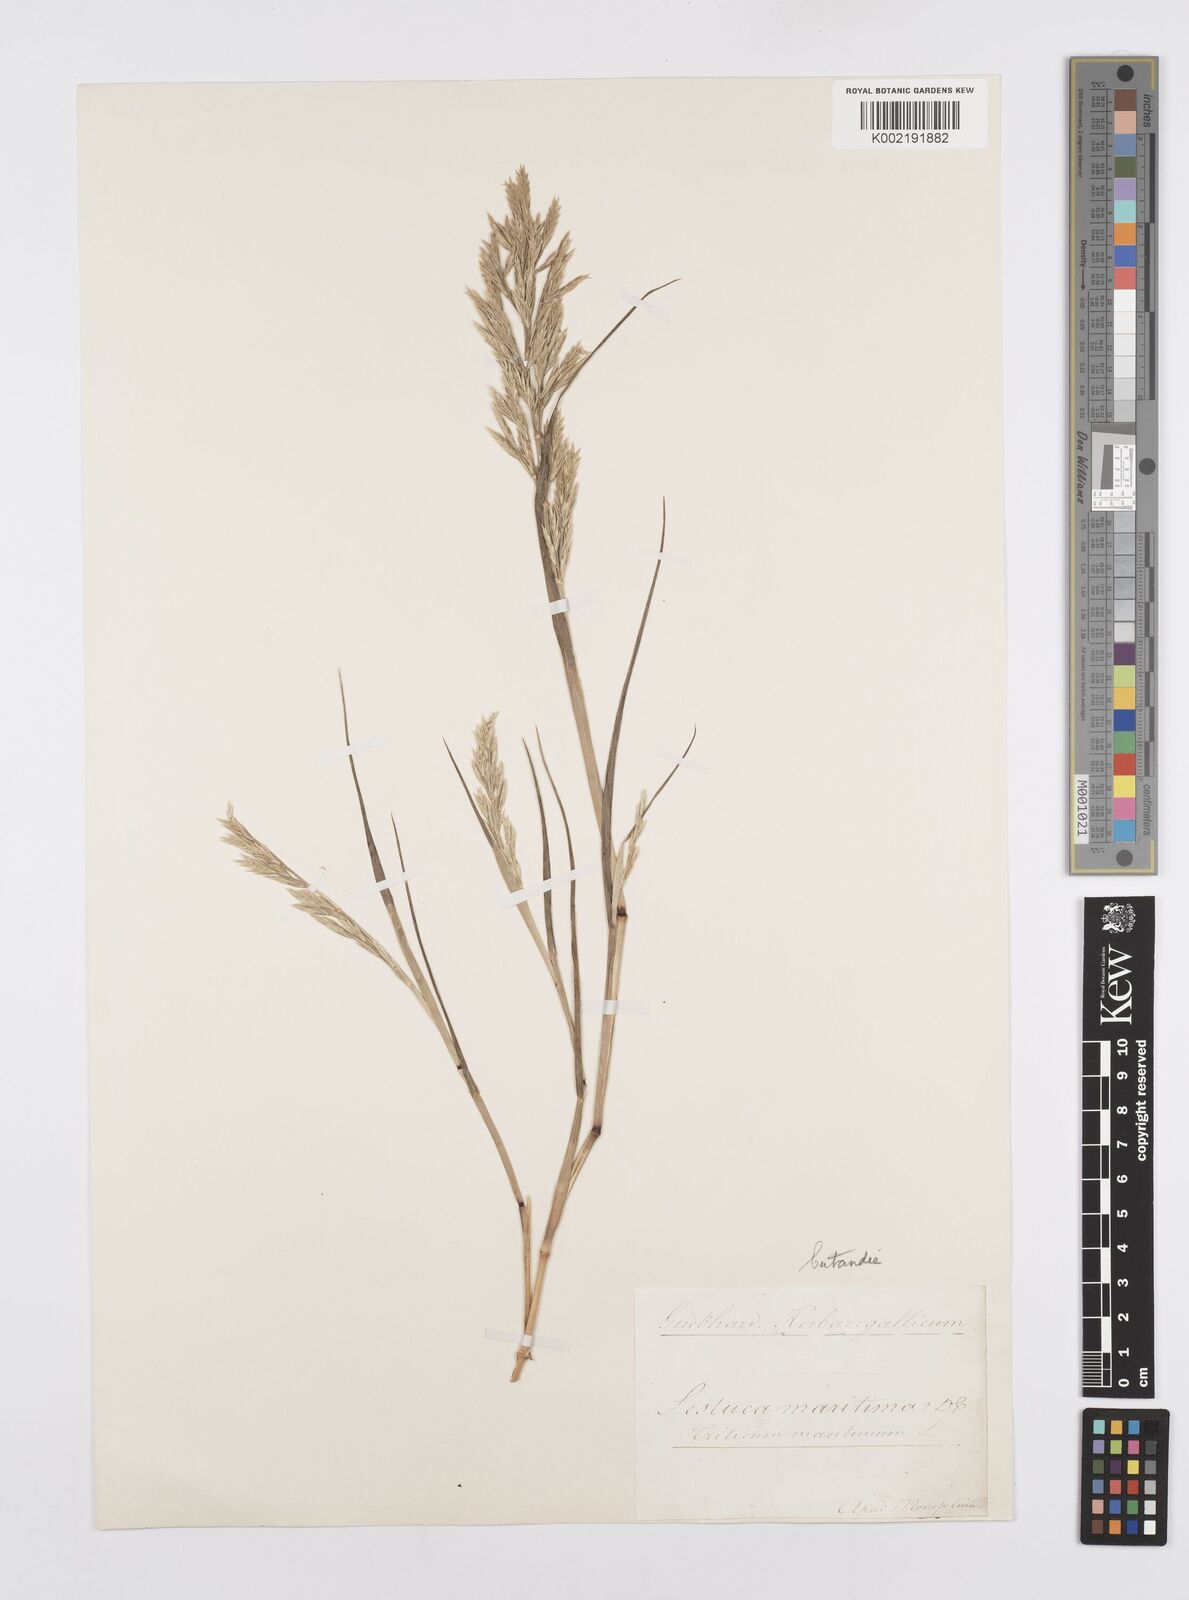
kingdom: Plantae
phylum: Tracheophyta
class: Liliopsida
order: Poales
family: Poaceae
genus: Cutandia
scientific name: Cutandia maritima
